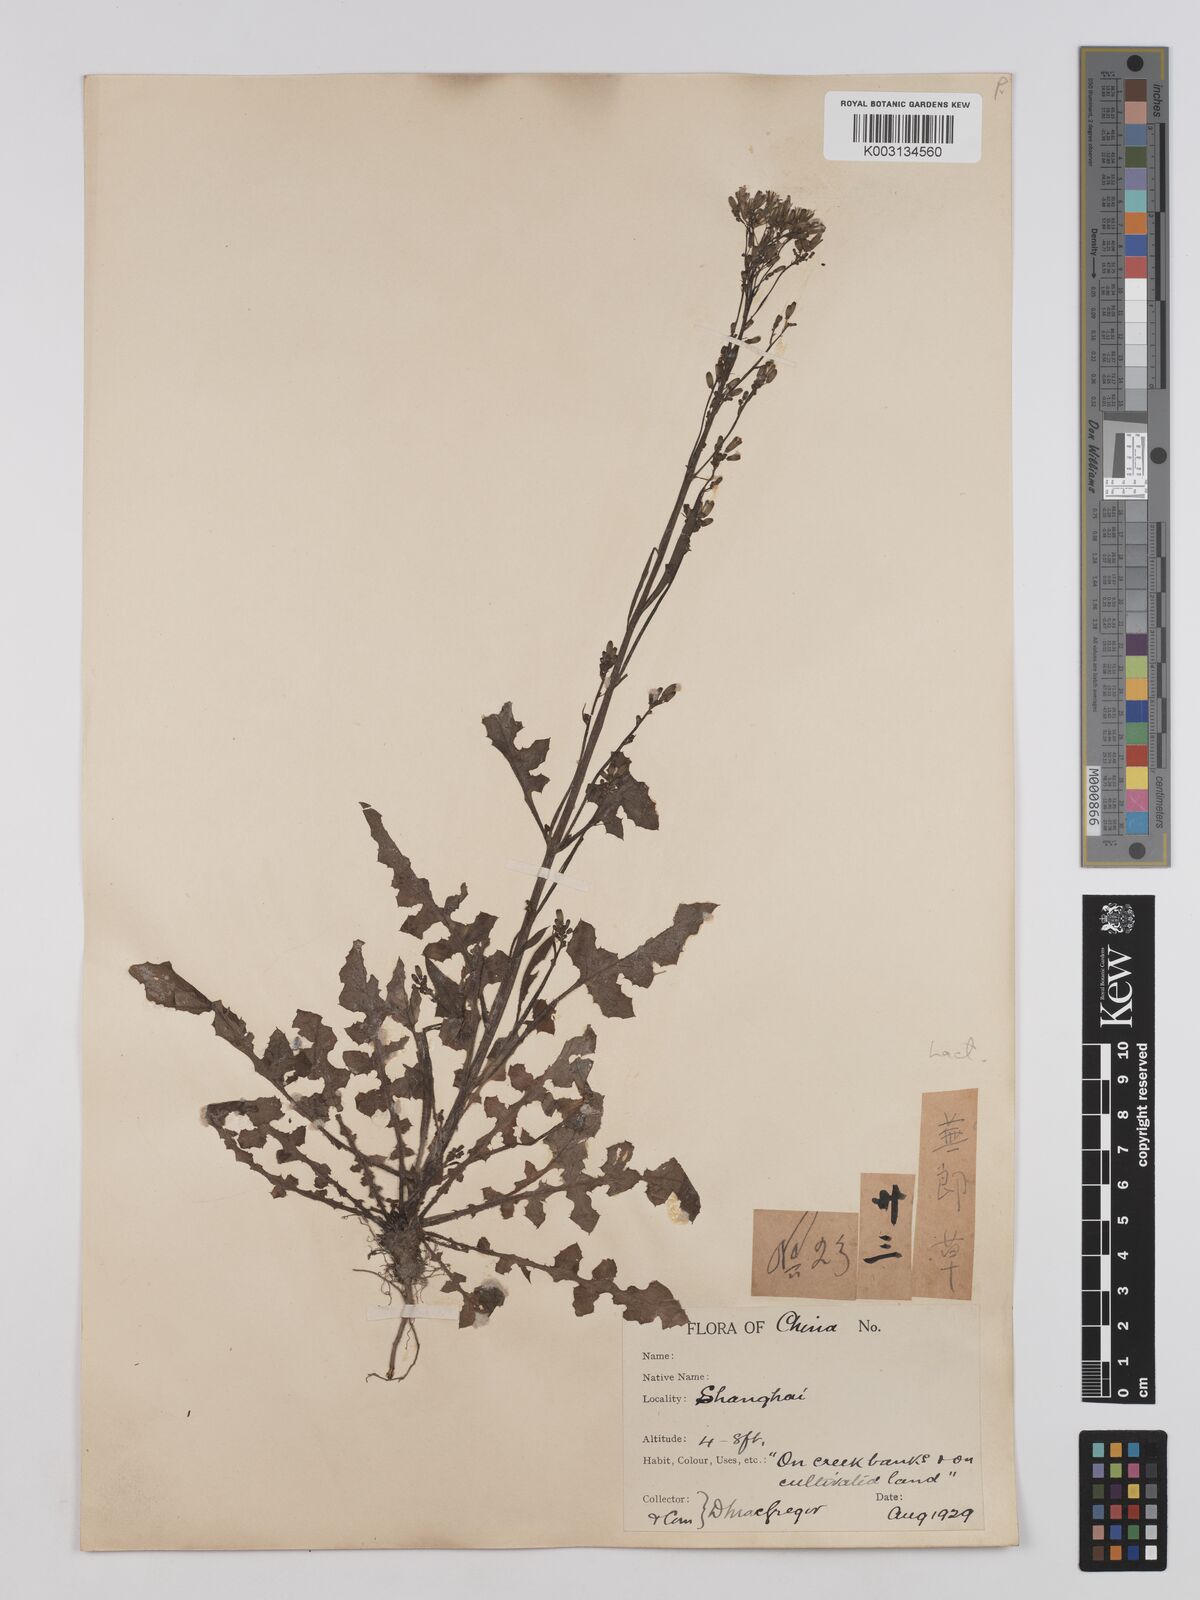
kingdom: Plantae
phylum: Tracheophyta
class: Magnoliopsida
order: Asterales
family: Asteraceae
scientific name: Asteraceae
